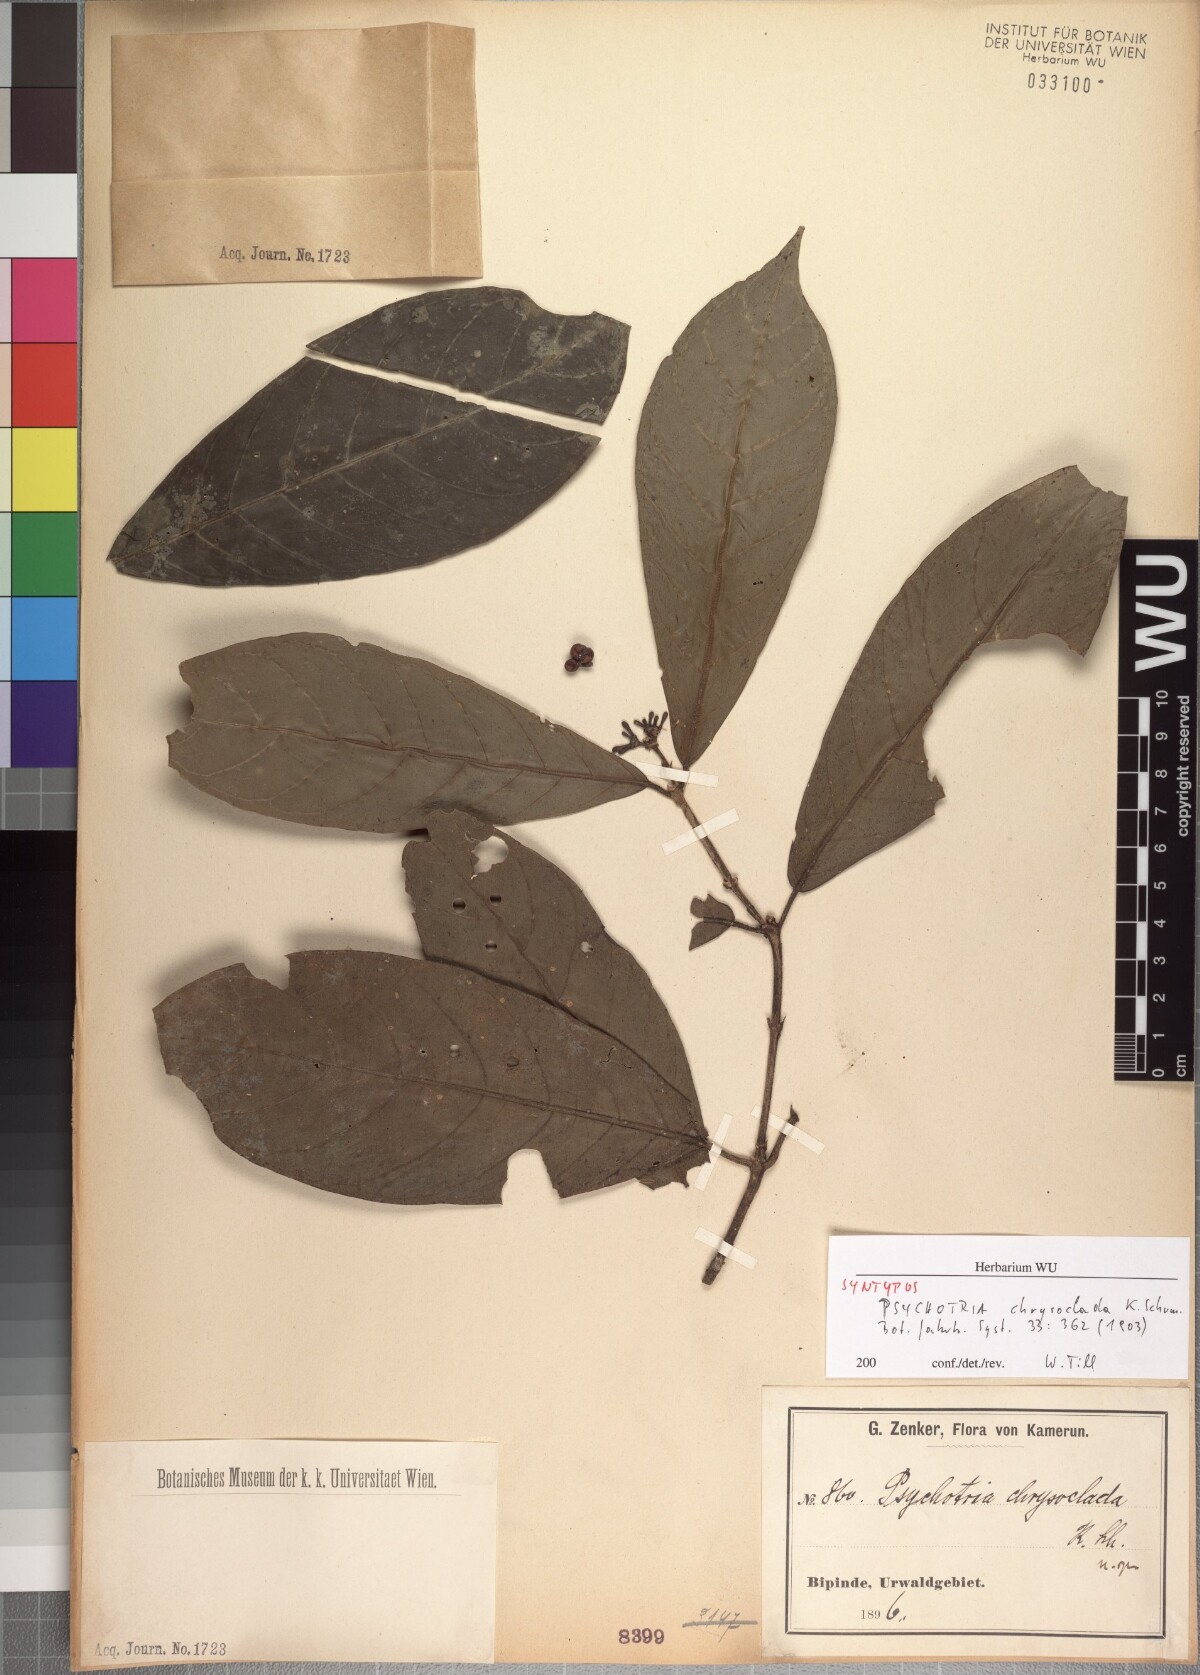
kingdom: Plantae
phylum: Tracheophyta
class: Magnoliopsida
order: Gentianales
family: Rubiaceae
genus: Chassalia
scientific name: Chassalia chrysoclada
